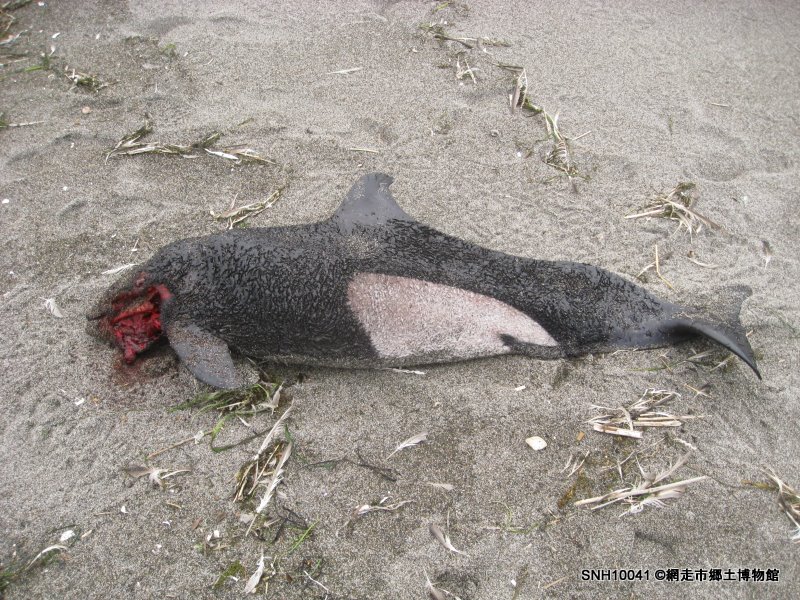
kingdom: Animalia
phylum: Chordata
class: Mammalia
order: Cetacea
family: Phocoenidae
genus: Phocoenoides
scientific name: Phocoenoides dalli
